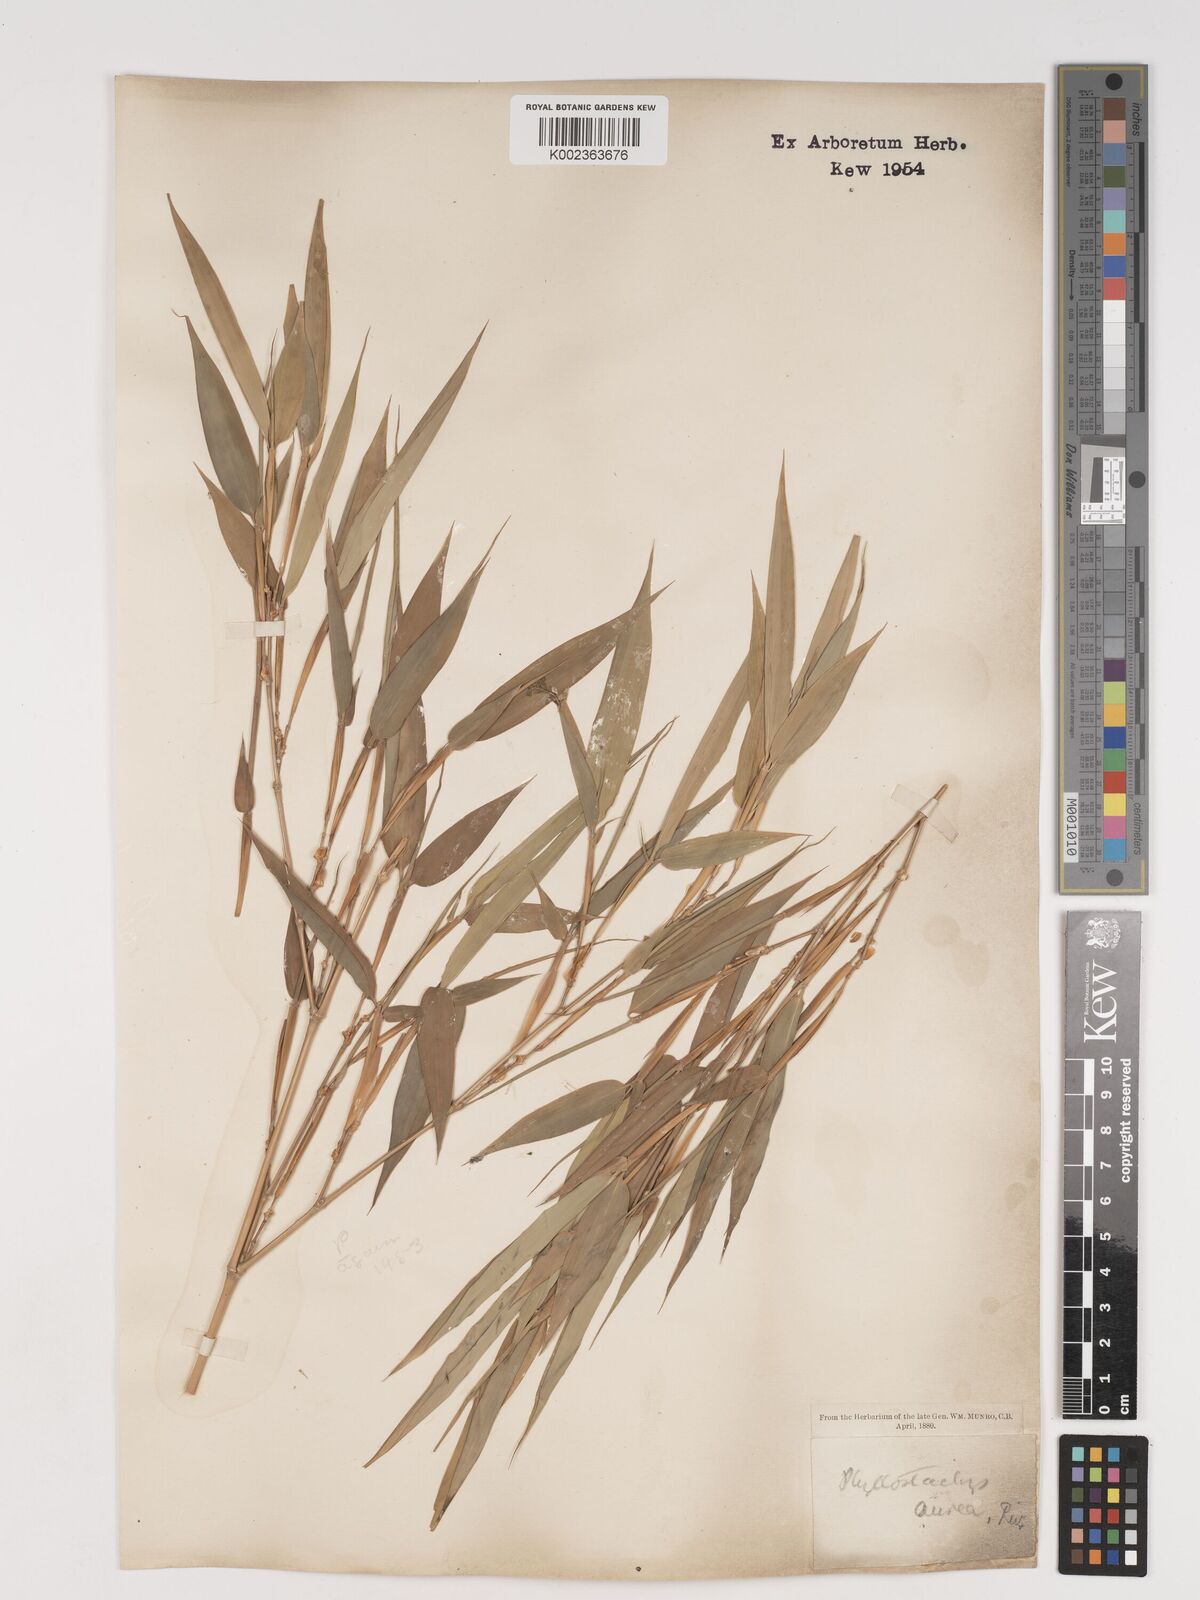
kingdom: Plantae
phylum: Tracheophyta
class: Liliopsida
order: Poales
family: Poaceae
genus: Phyllostachys
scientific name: Phyllostachys aurea
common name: Golden bamboo
